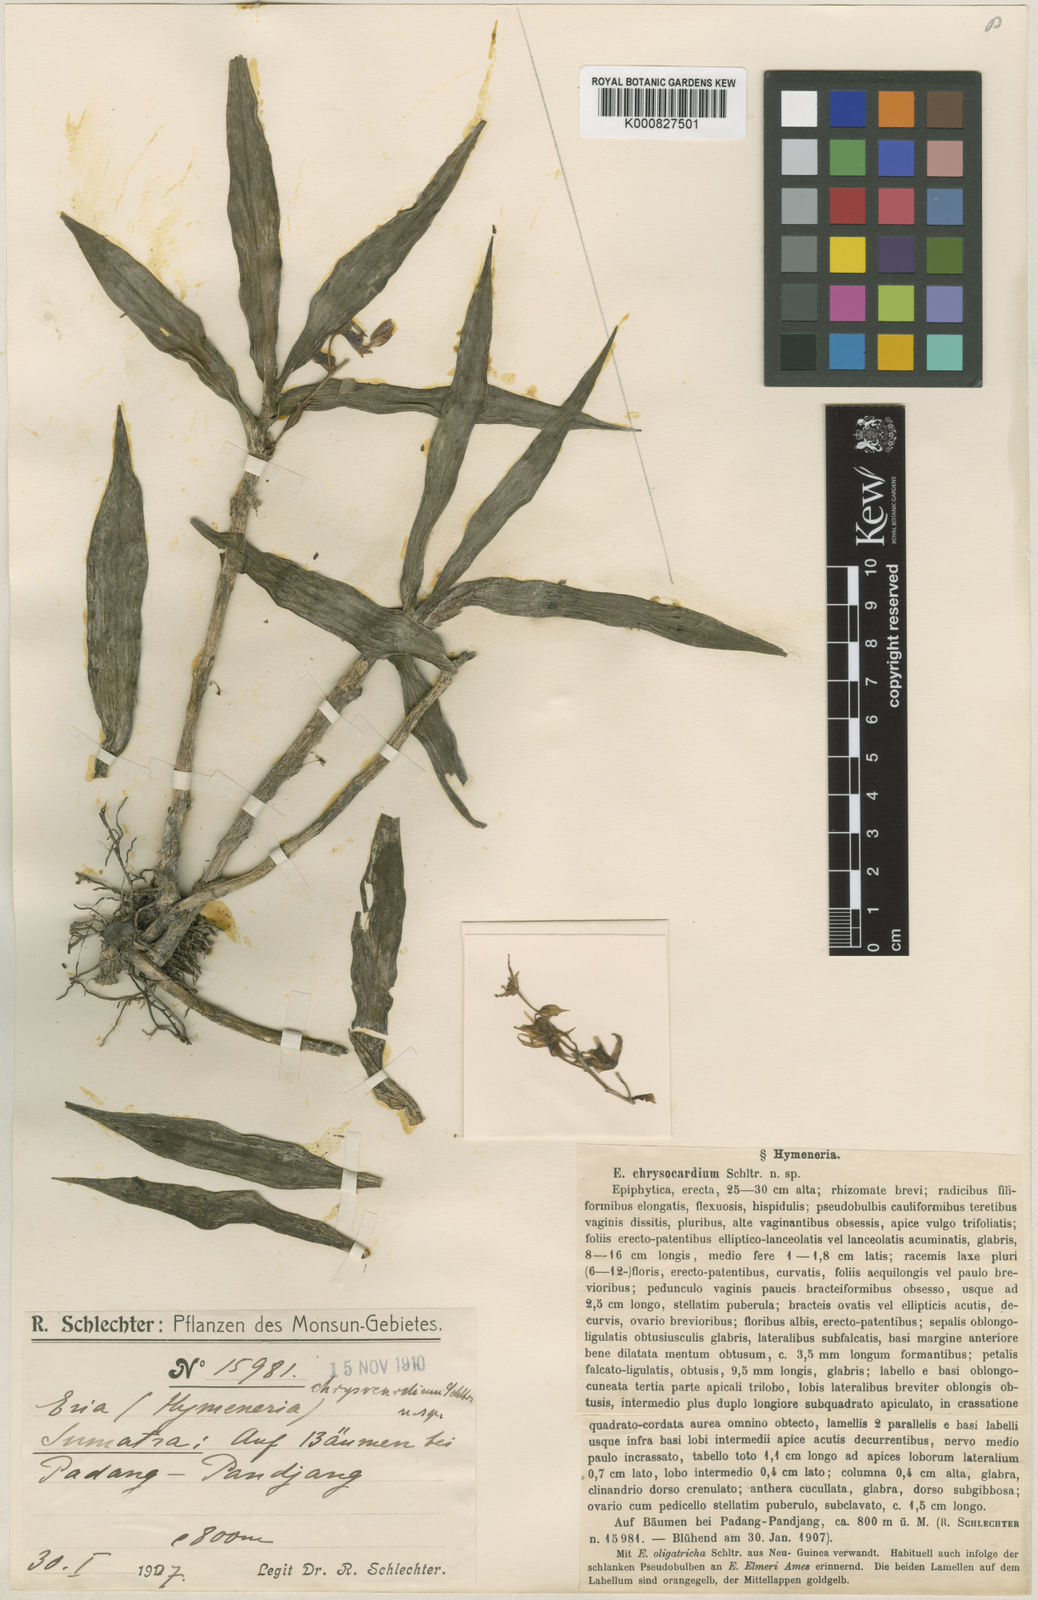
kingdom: Plantae
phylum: Tracheophyta
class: Liliopsida
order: Asparagales
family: Orchidaceae
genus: Pinalia
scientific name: Pinalia chrysocardium
